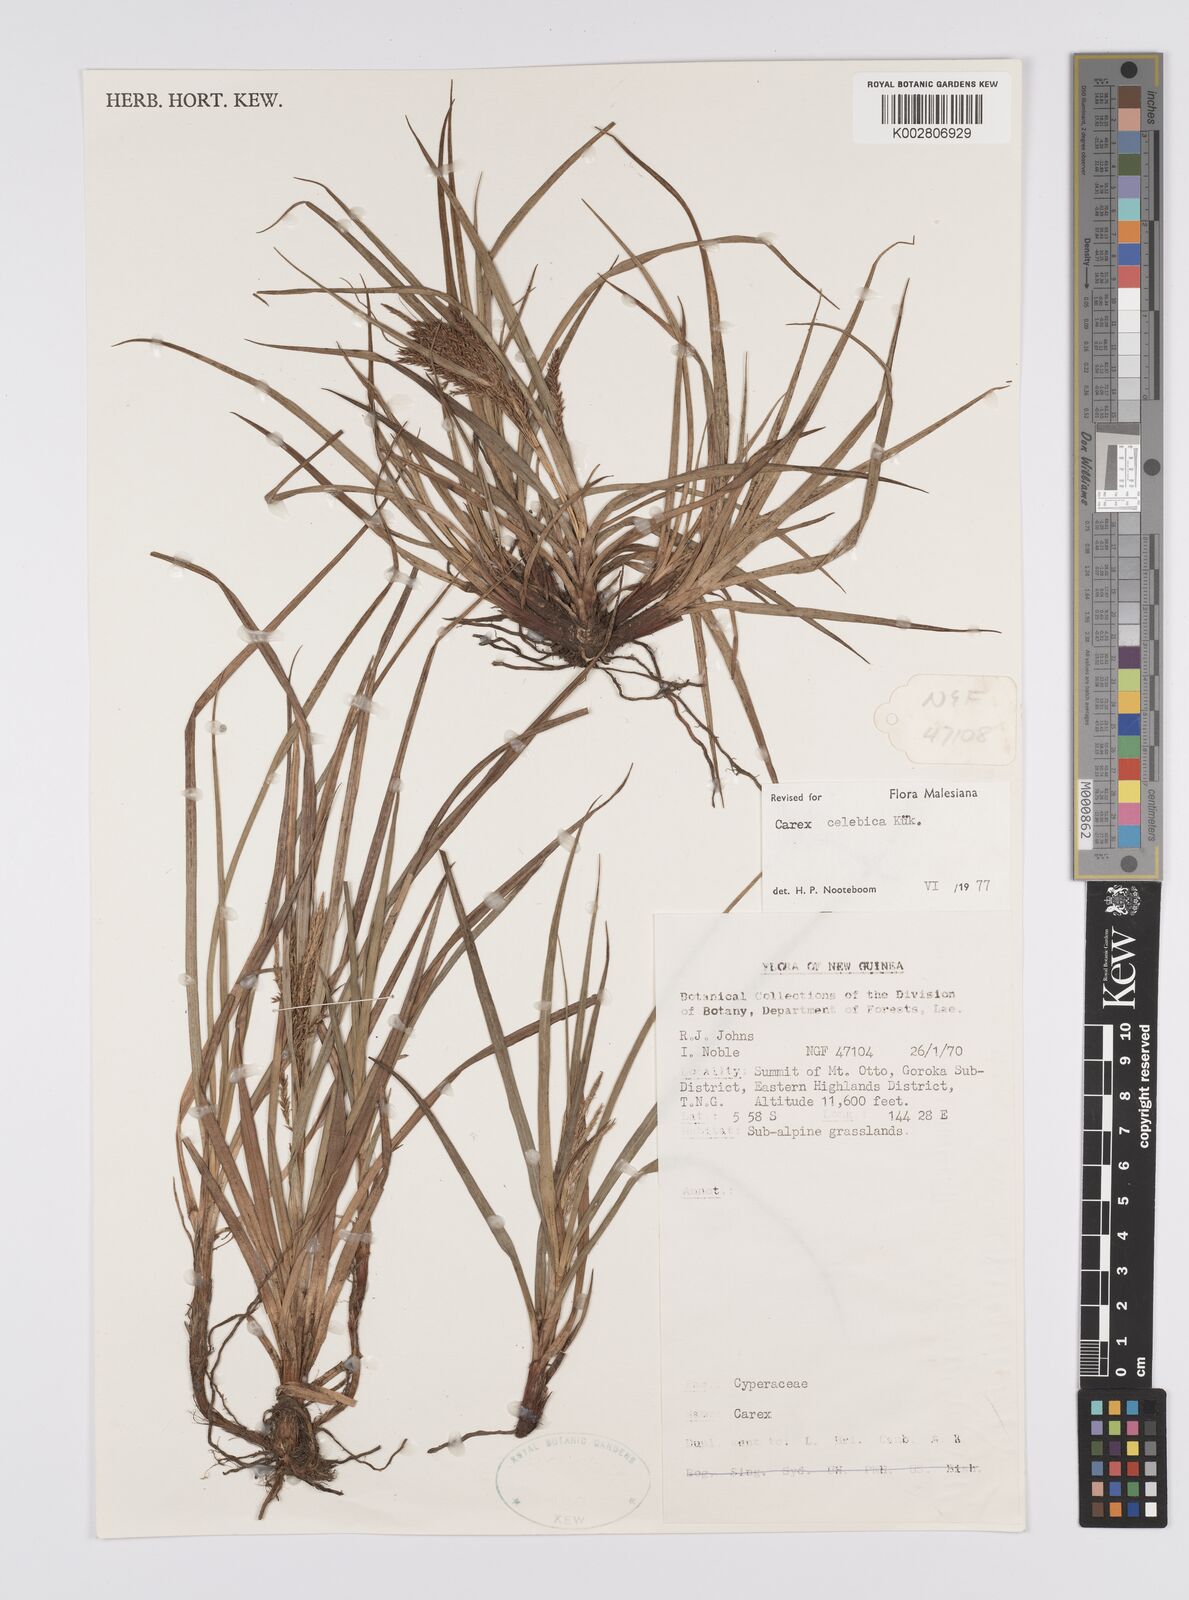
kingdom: Plantae
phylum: Tracheophyta
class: Liliopsida
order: Poales
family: Cyperaceae
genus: Carex
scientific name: Carex celebica
